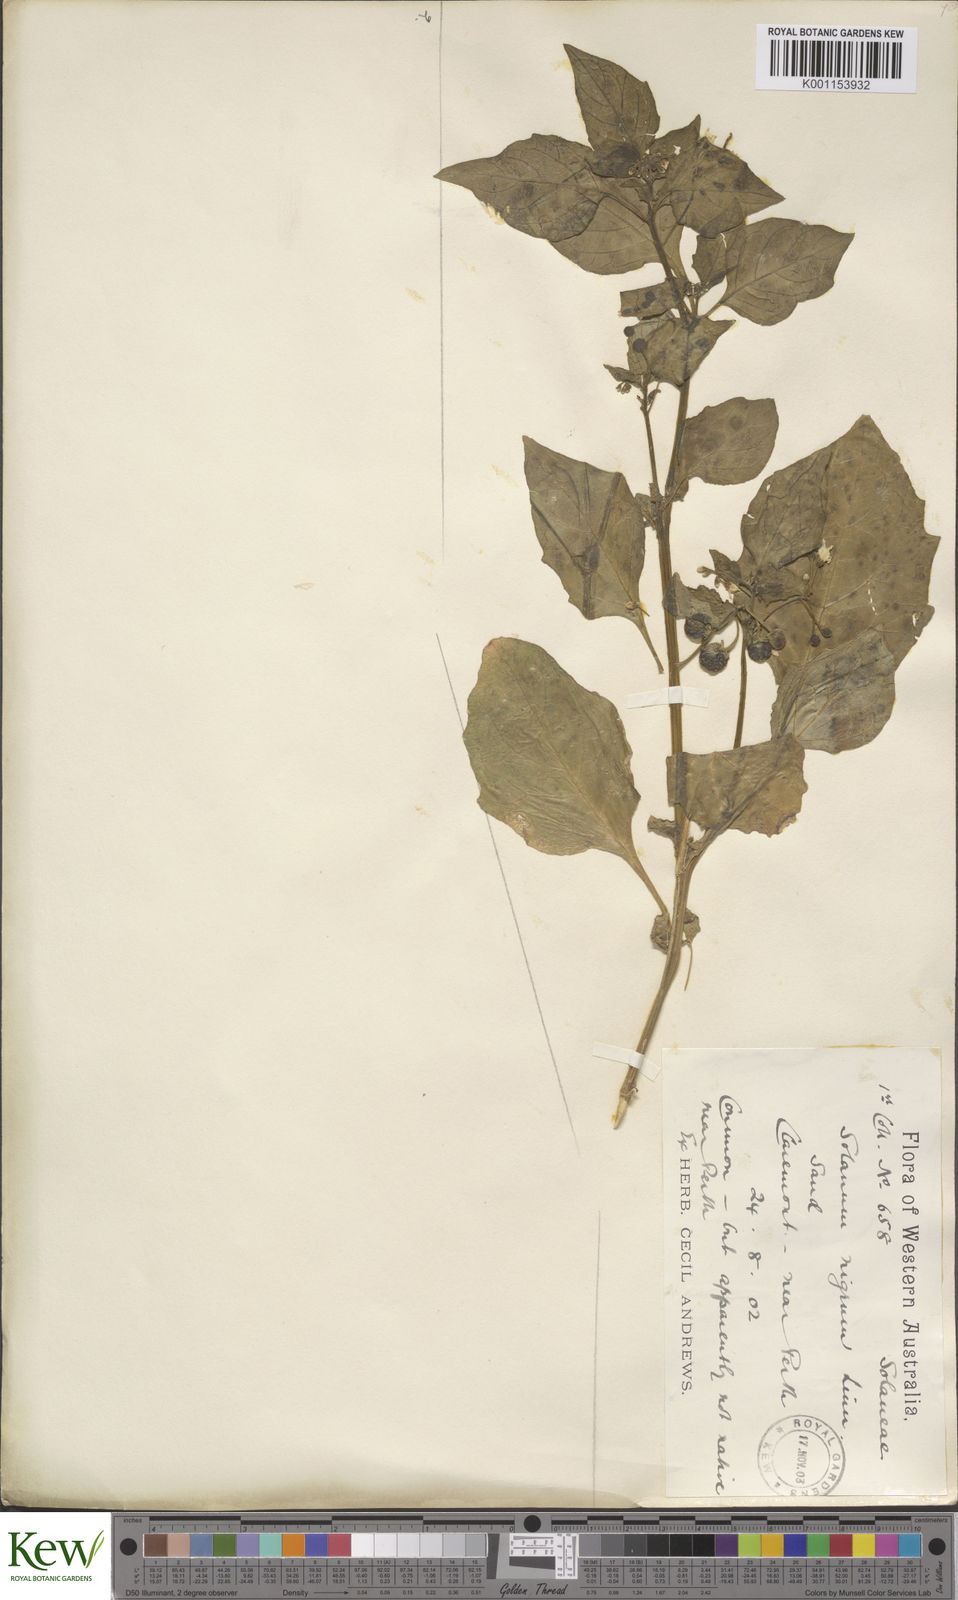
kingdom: Plantae
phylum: Tracheophyta
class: Magnoliopsida
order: Solanales
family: Solanaceae
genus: Solanum
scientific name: Solanum nigrum
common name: Black nightshade
